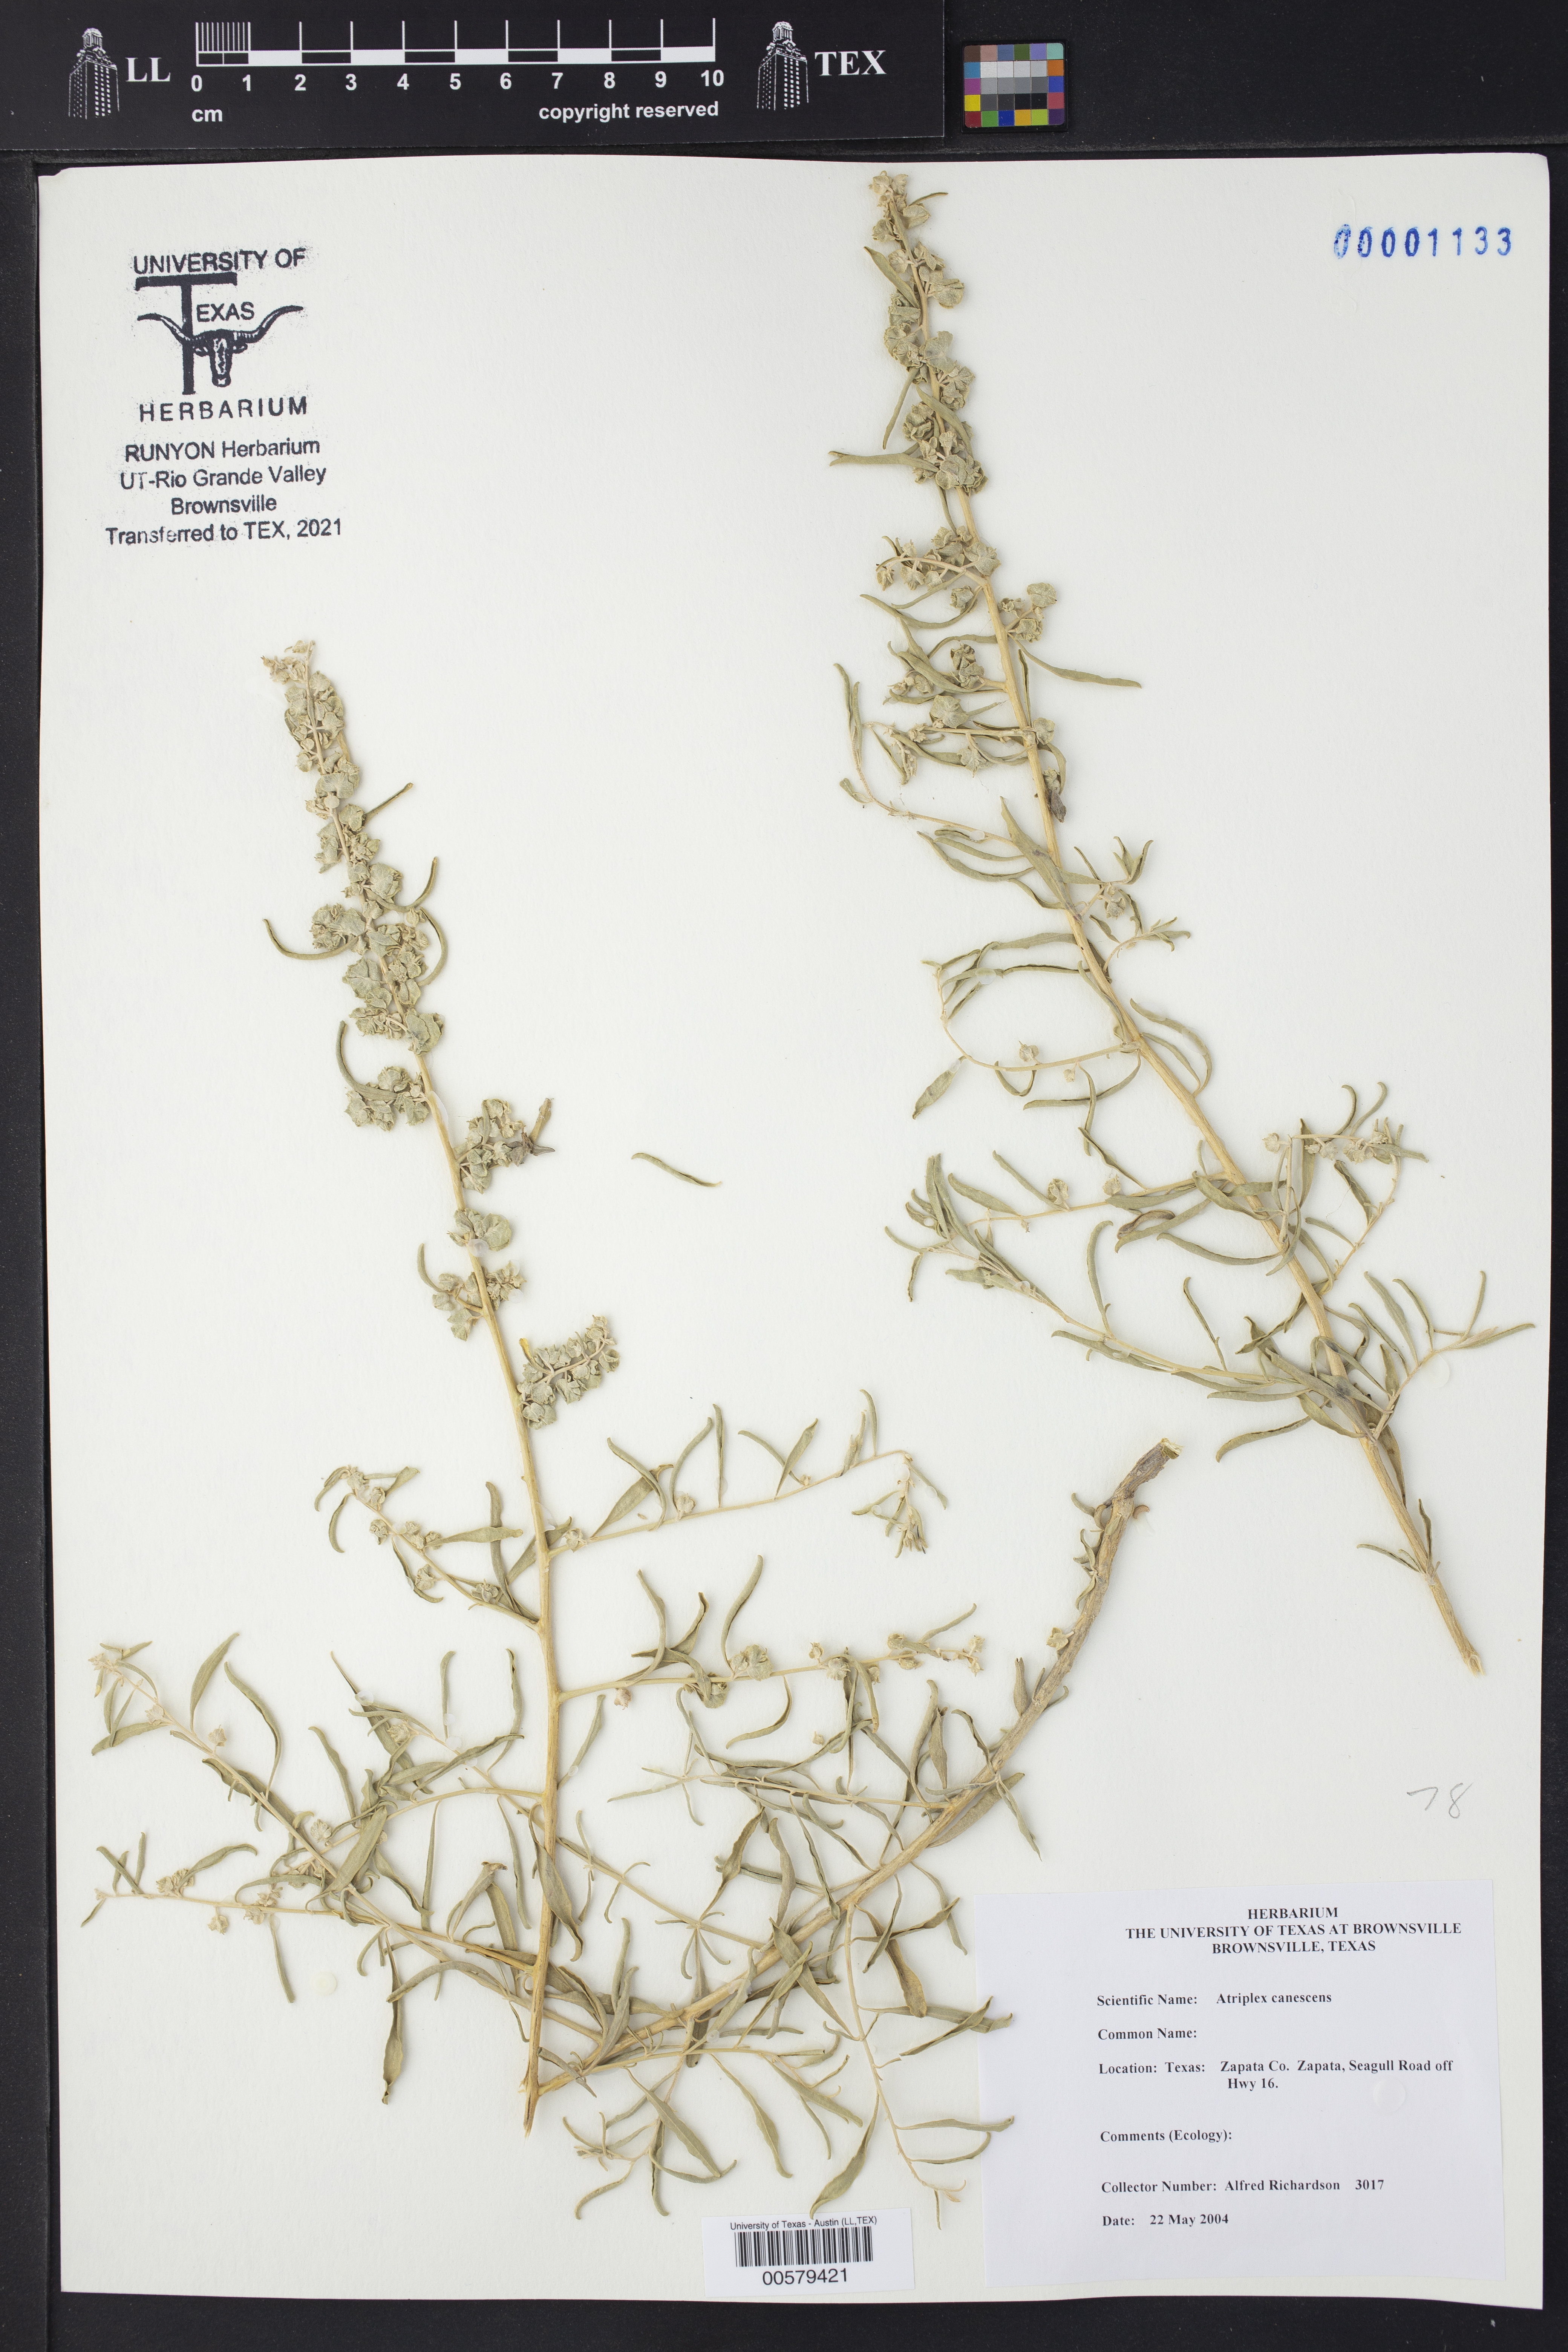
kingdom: Plantae
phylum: Tracheophyta
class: Magnoliopsida
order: Caryophyllales
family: Amaranthaceae
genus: Atriplex
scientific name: Atriplex canescens
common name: Four-wing saltbush
